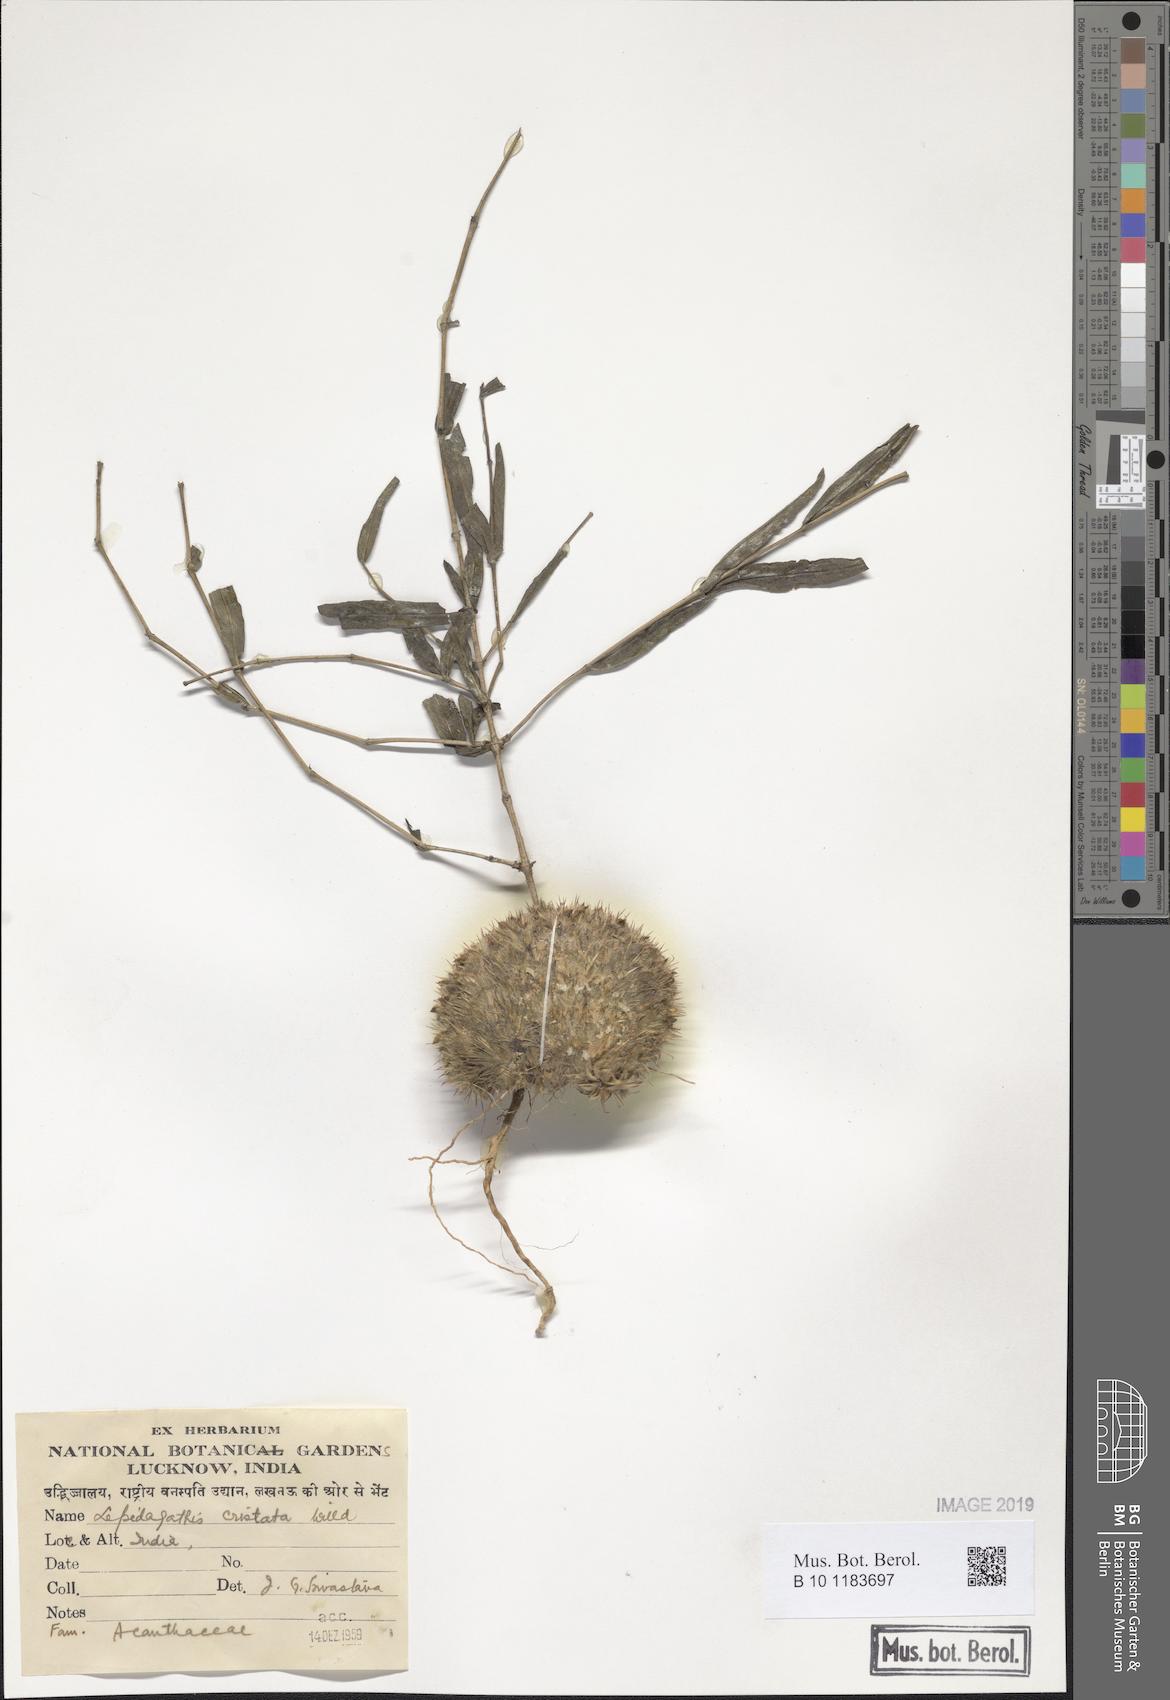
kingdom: Plantae
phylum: Tracheophyta
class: Magnoliopsida
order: Lamiales
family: Acanthaceae
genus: Lepidagathis
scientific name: Lepidagathis cristata
